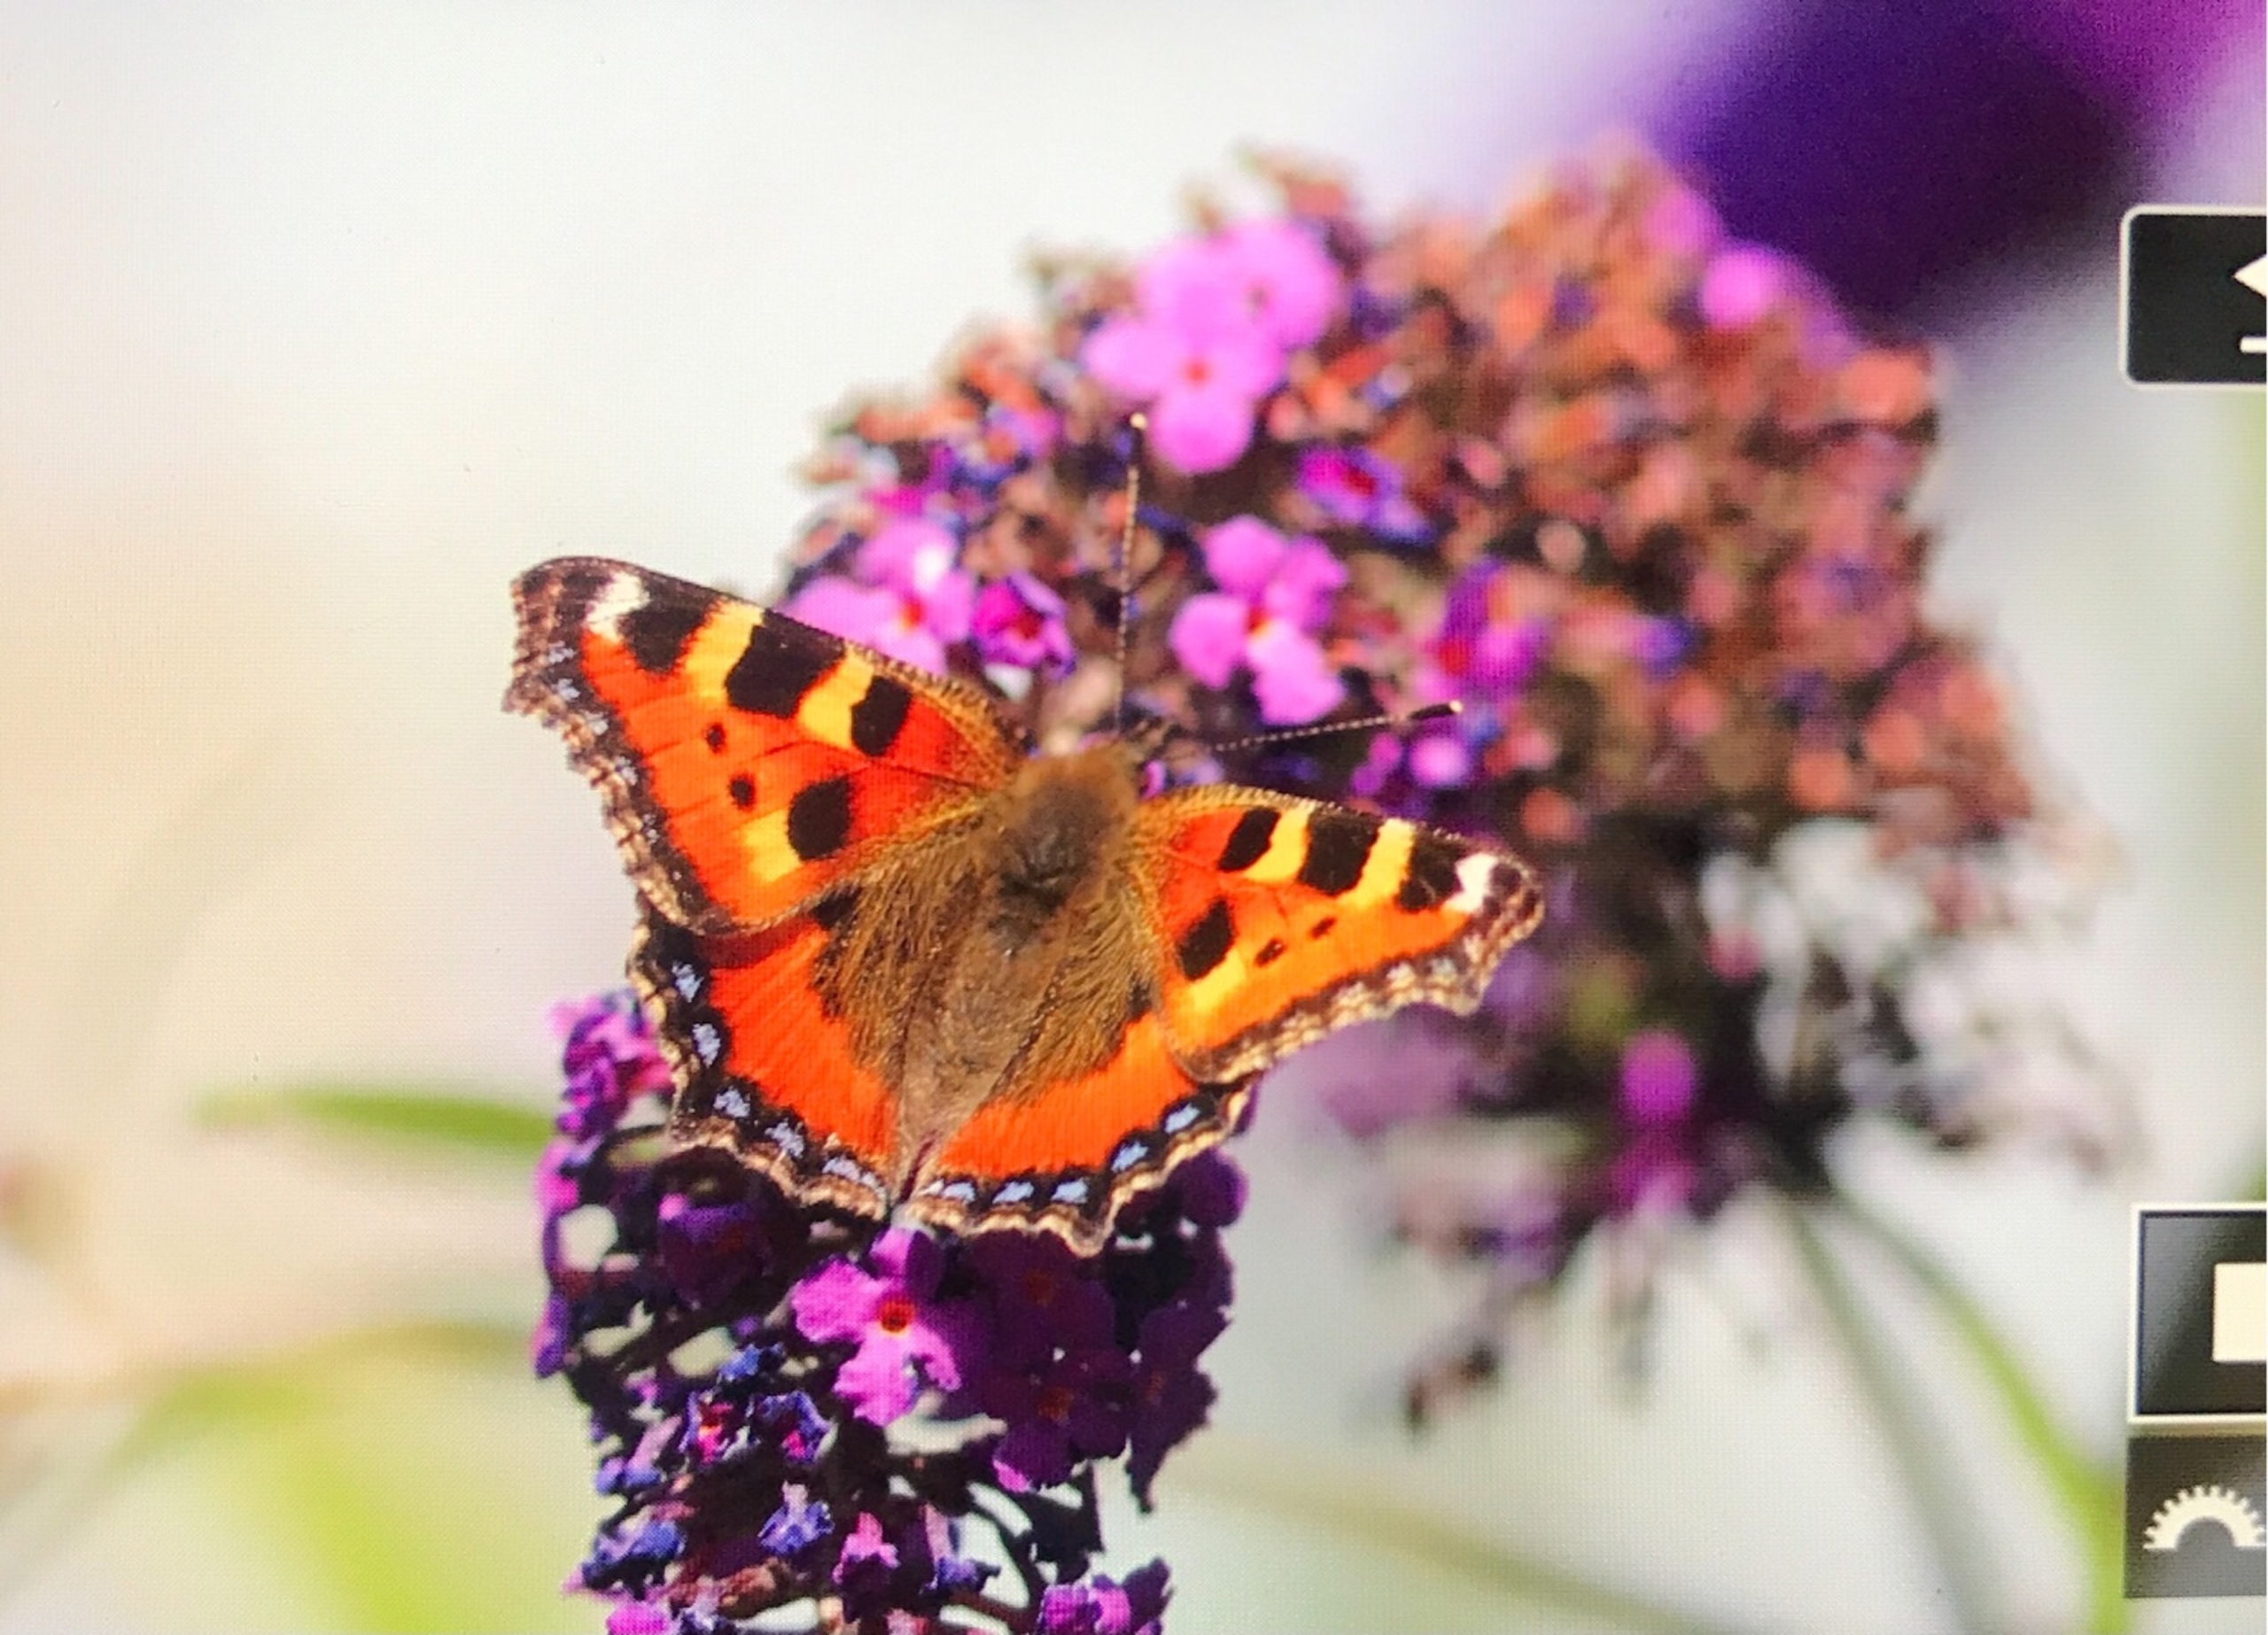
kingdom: Animalia
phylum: Arthropoda
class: Insecta
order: Lepidoptera
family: Nymphalidae
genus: Aglais
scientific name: Aglais urticae
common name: Nældens takvinge
